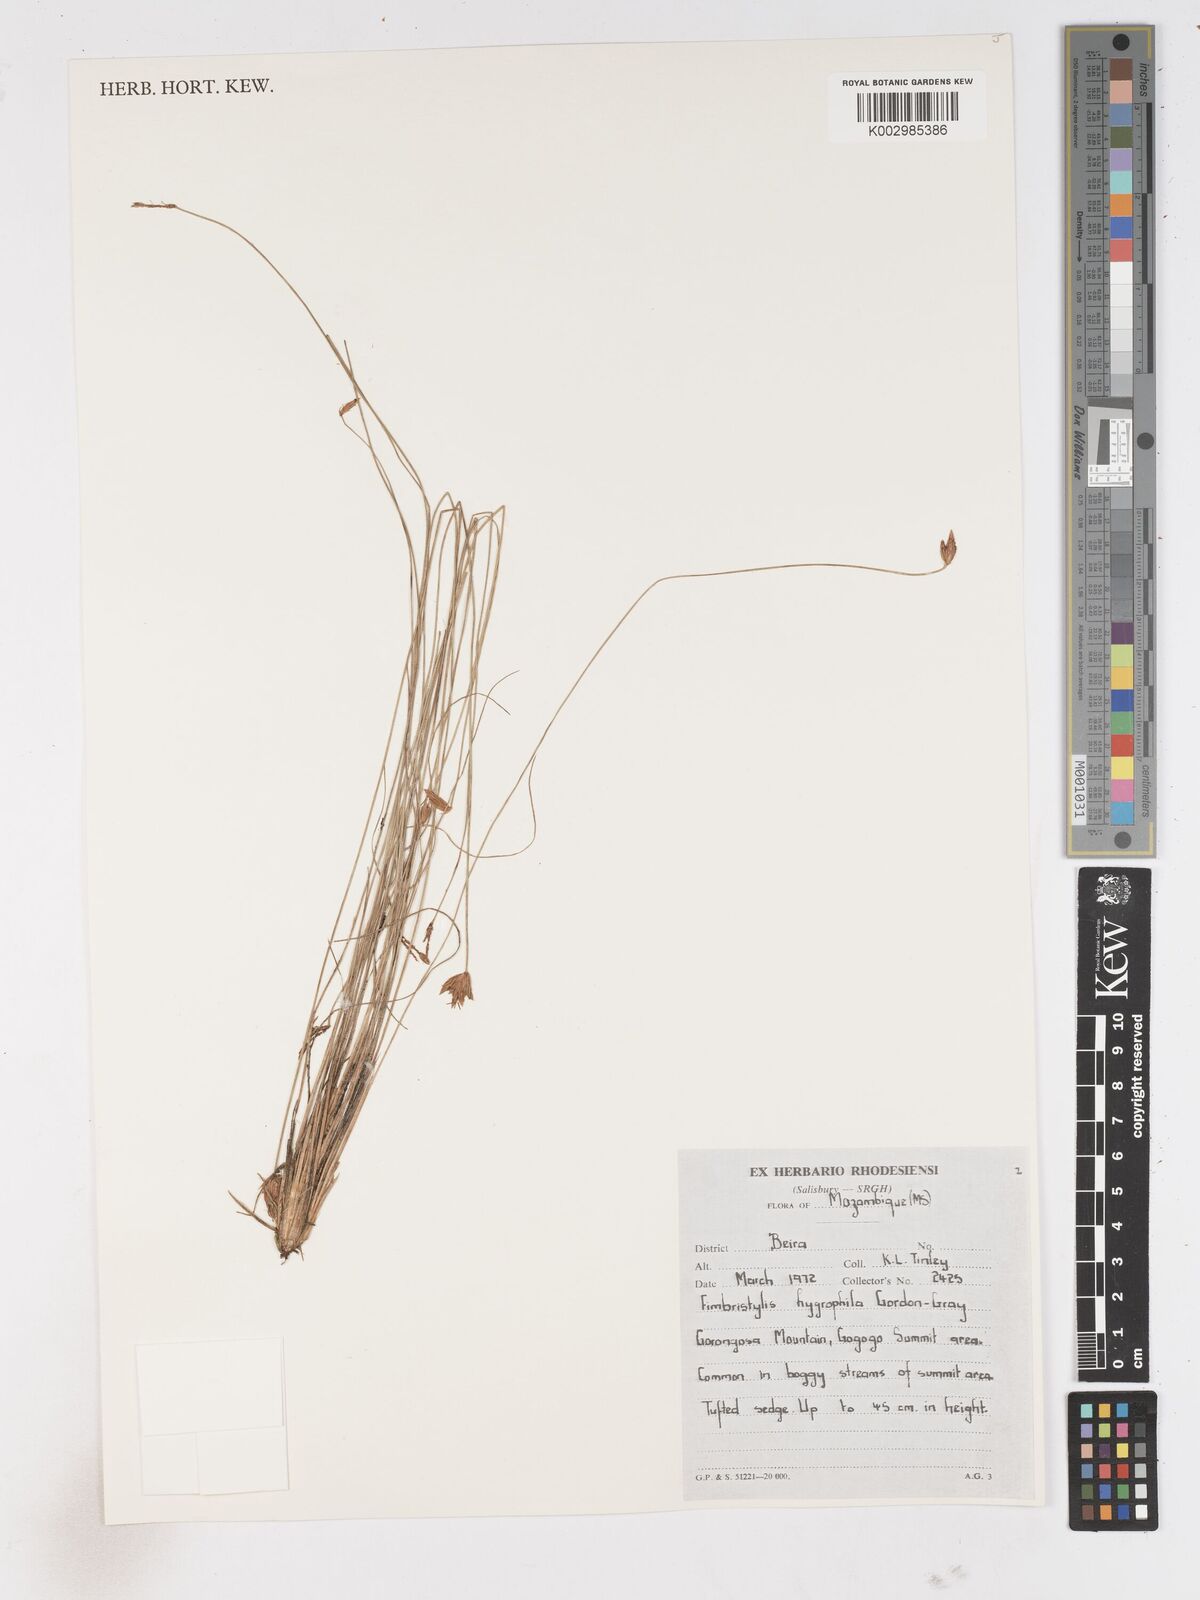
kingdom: Plantae
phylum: Tracheophyta
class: Liliopsida
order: Poales
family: Cyperaceae
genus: Arthrostylis
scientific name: Arthrostylis aphylla
